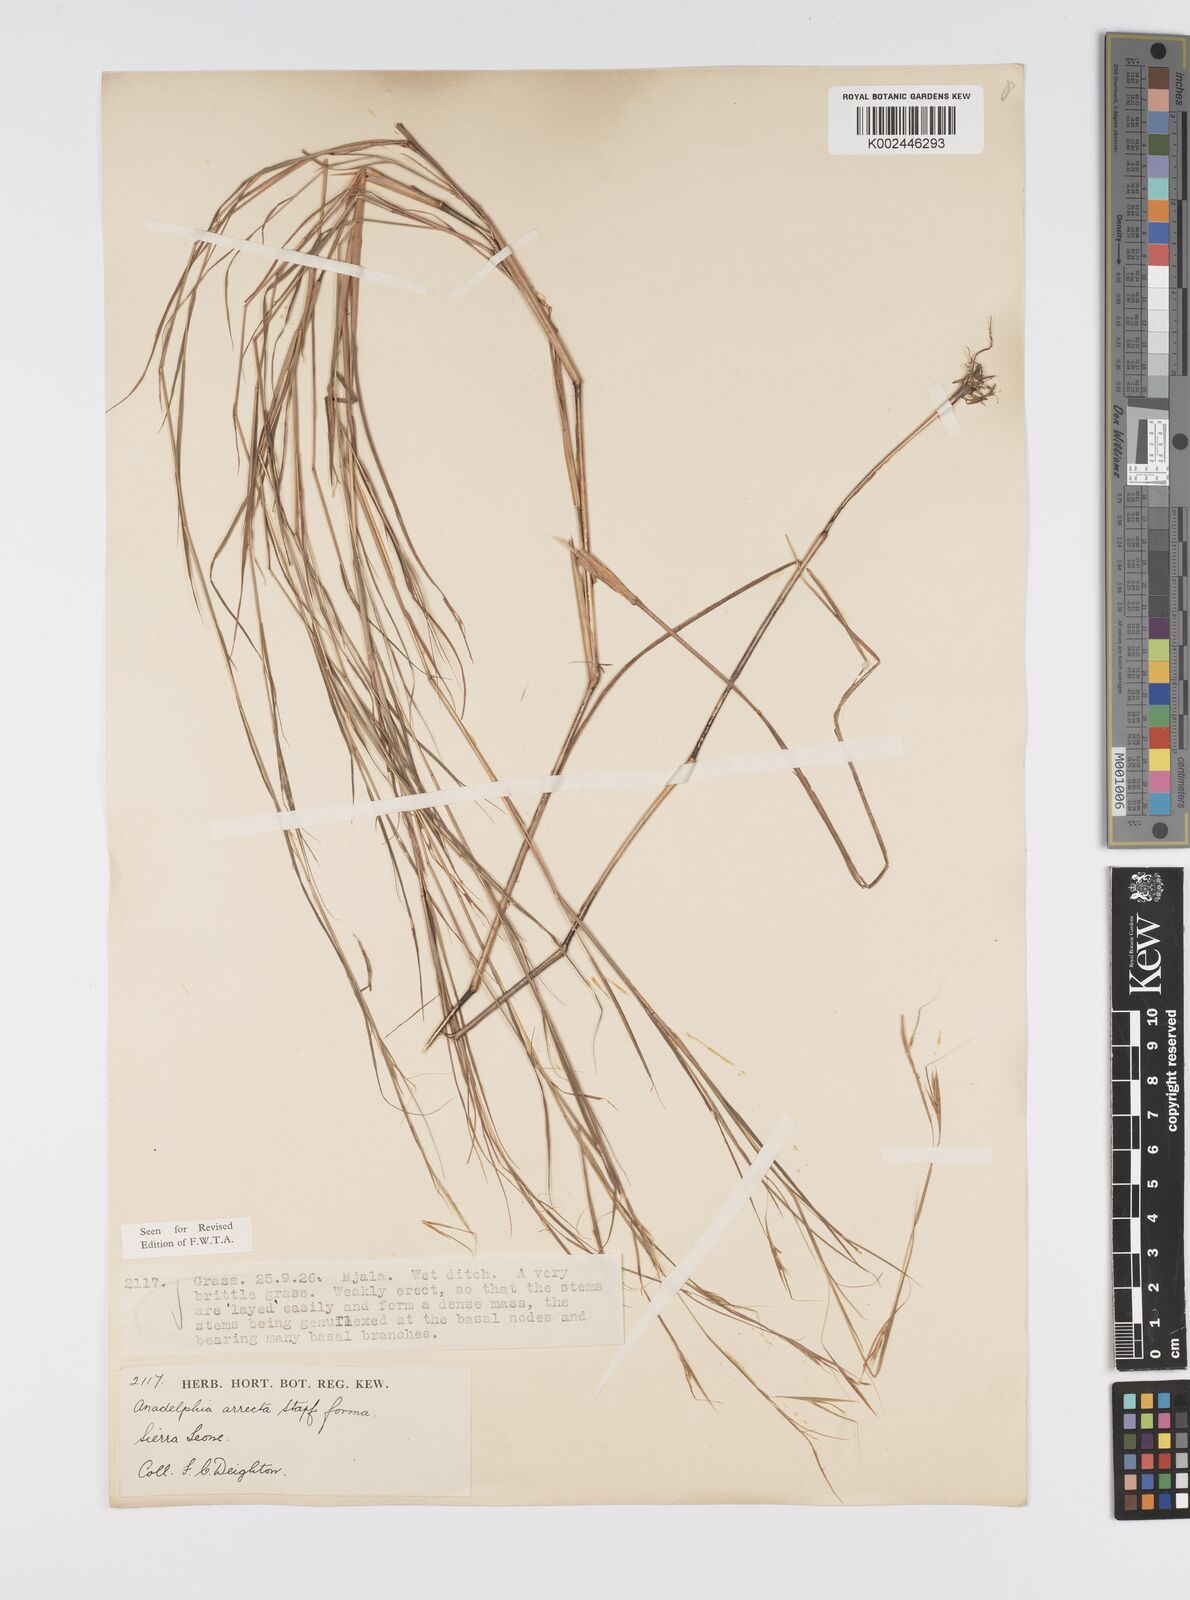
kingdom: Plantae
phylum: Tracheophyta
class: Liliopsida
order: Poales
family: Poaceae
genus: Anadelphia
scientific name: Anadelphia afzeliana
